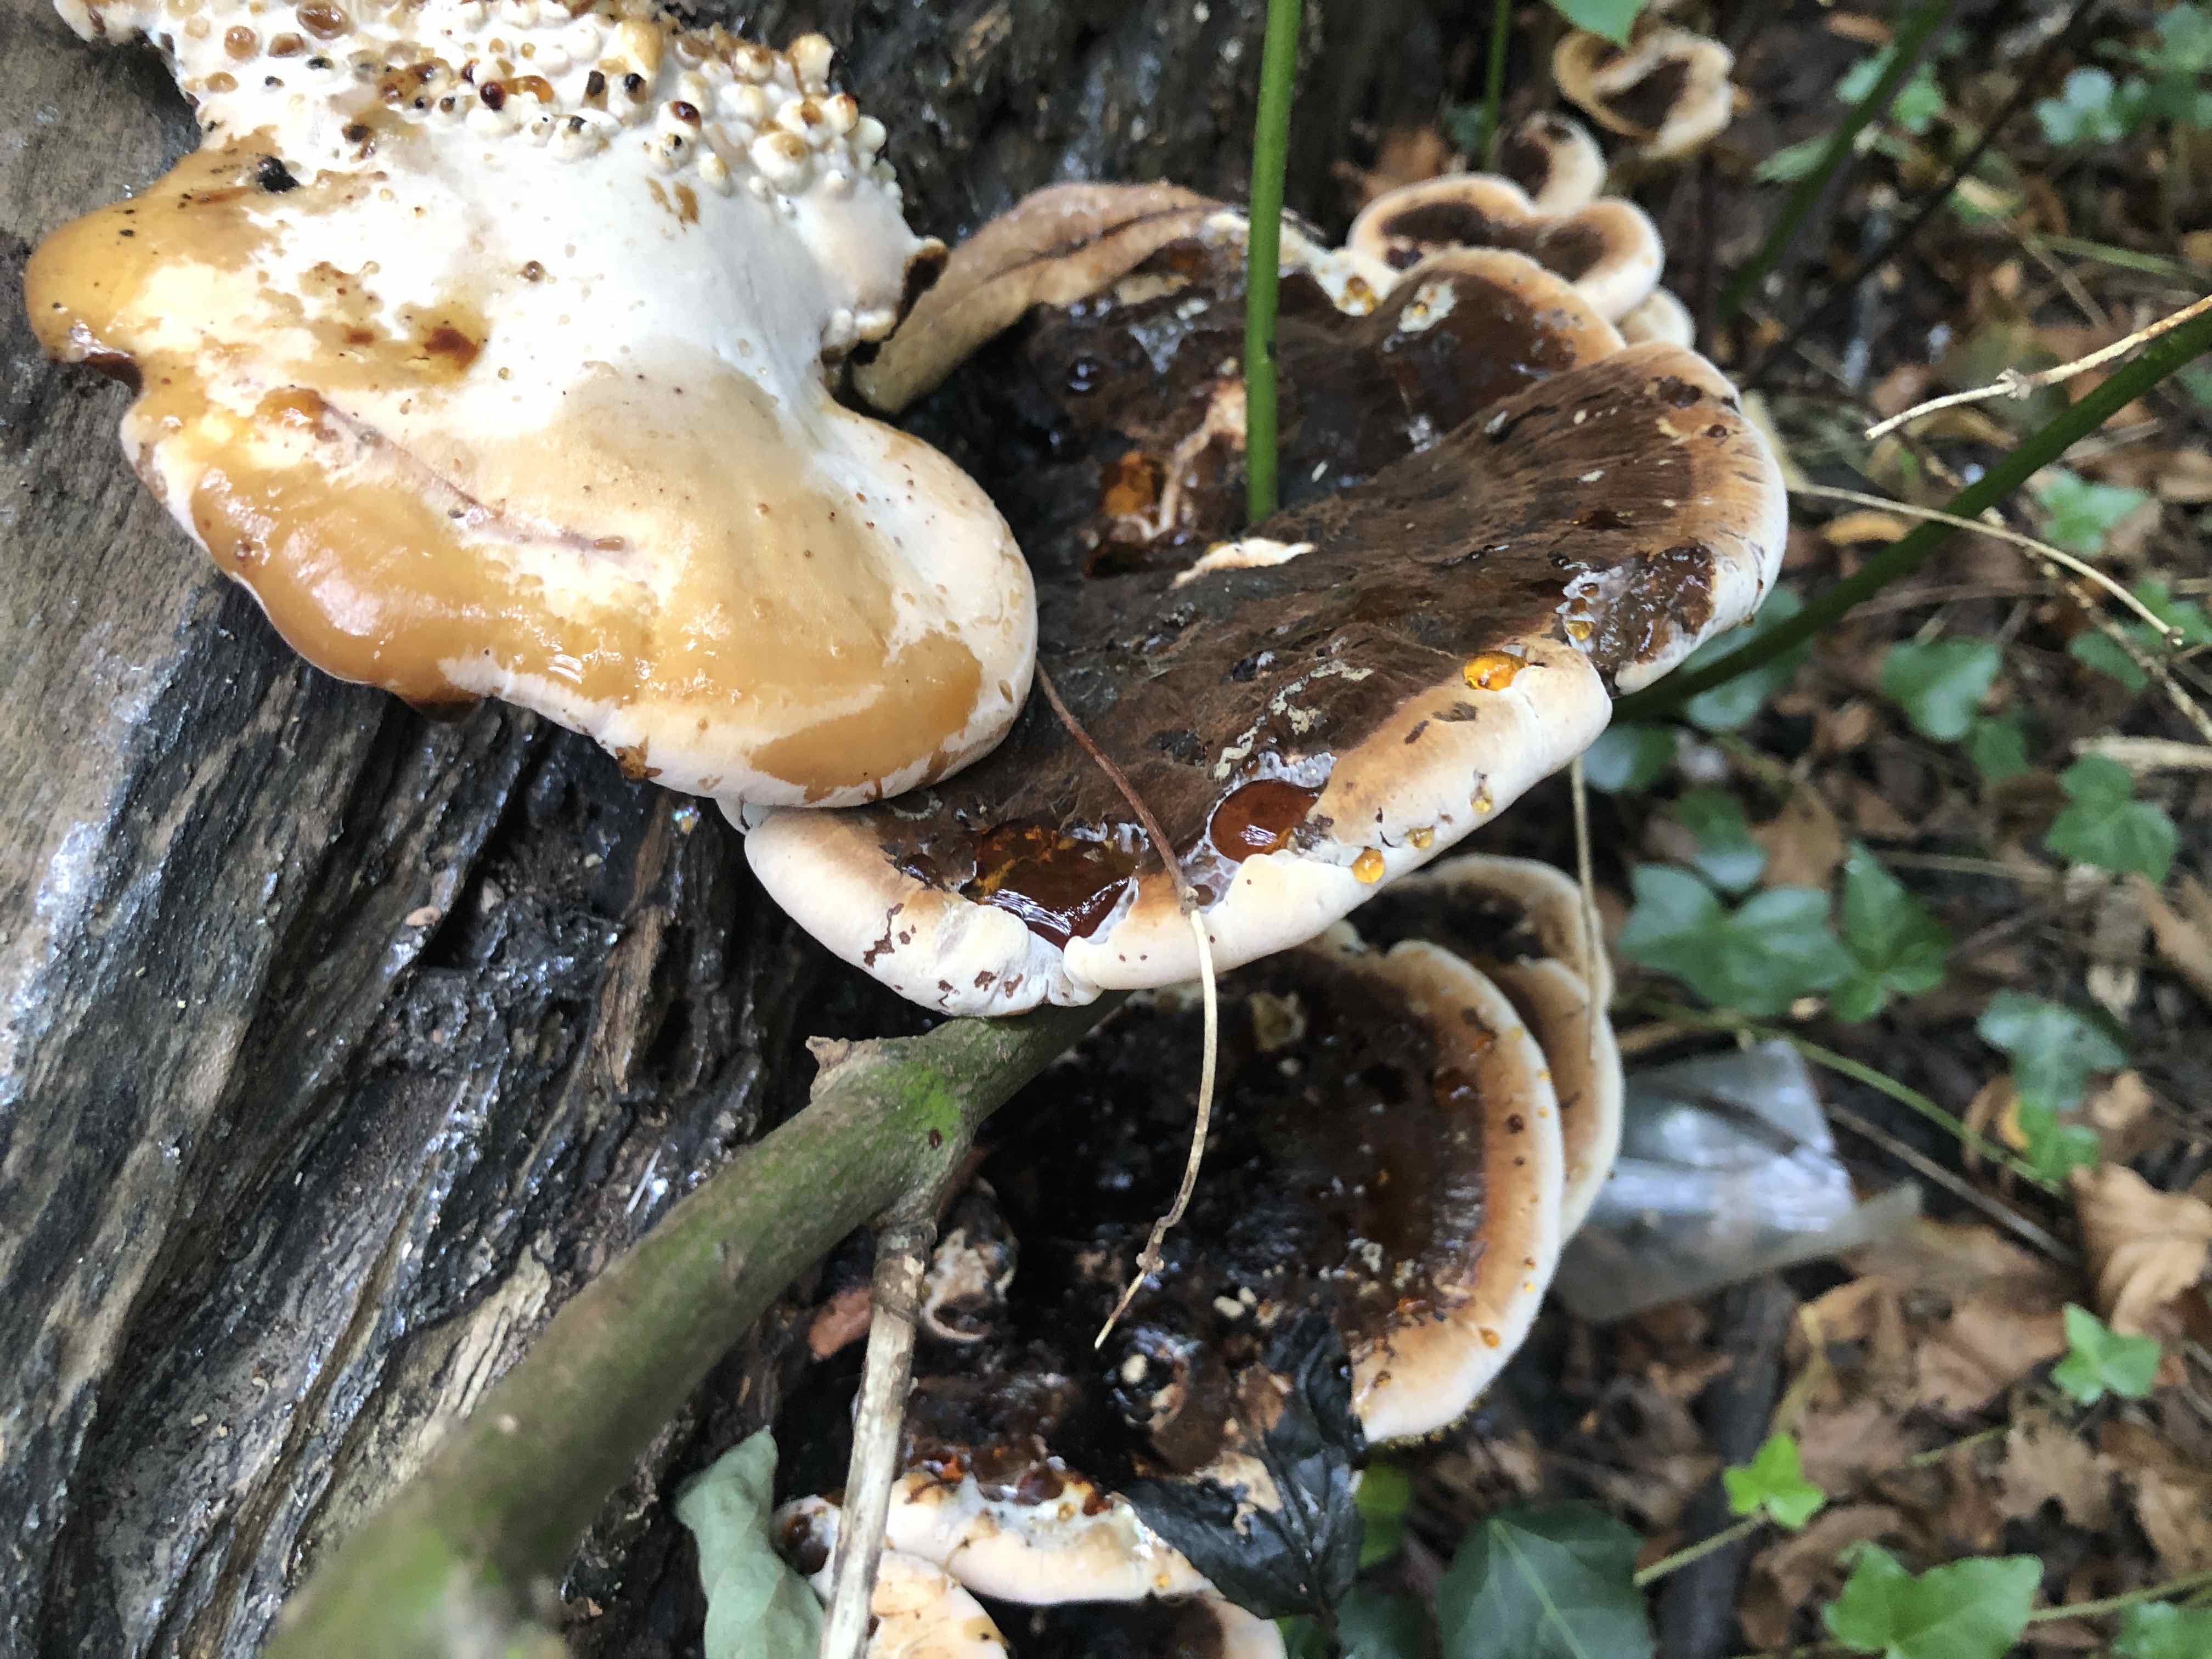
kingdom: Fungi
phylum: Basidiomycota
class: Agaricomycetes
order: Polyporales
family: Ischnodermataceae
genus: Ischnoderma
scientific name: Ischnoderma resinosum
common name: løv-tjæreporesvamp
